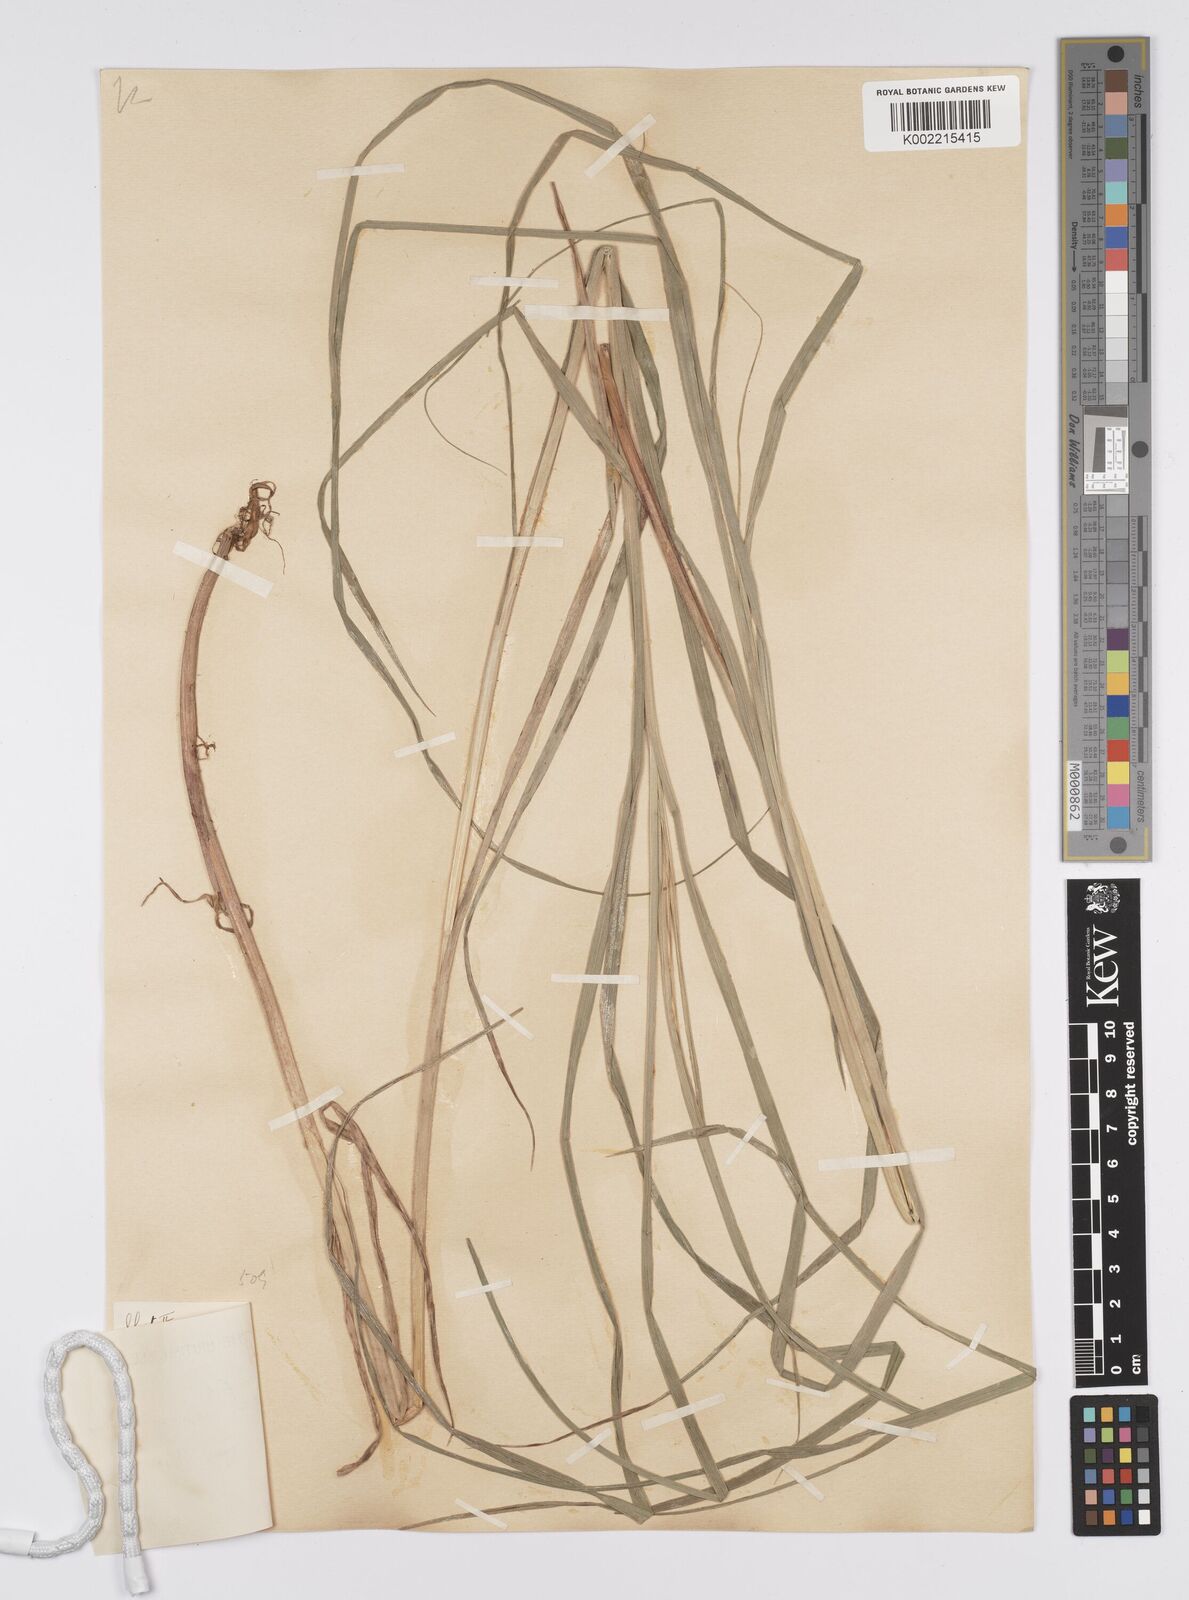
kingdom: Plantae
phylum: Tracheophyta
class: Liliopsida
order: Poales
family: Cyperaceae
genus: Carex
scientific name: Carex hirta
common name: Hairy sedge
